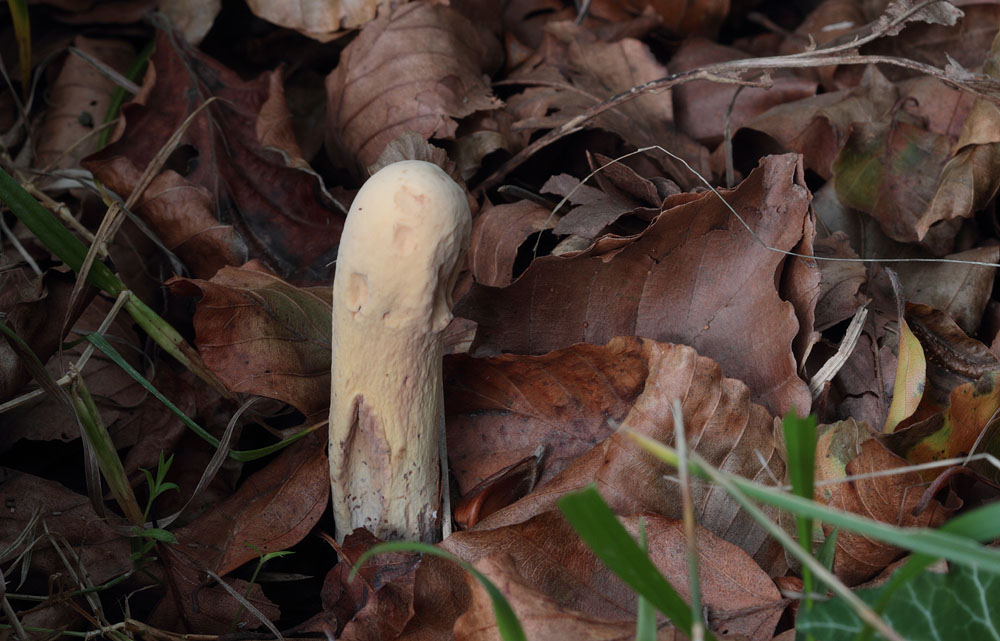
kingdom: Fungi
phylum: Basidiomycota
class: Agaricomycetes
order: Gomphales
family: Clavariadelphaceae
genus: Clavariadelphus
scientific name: Clavariadelphus pistillaris
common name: herkules-kæmpekølle
